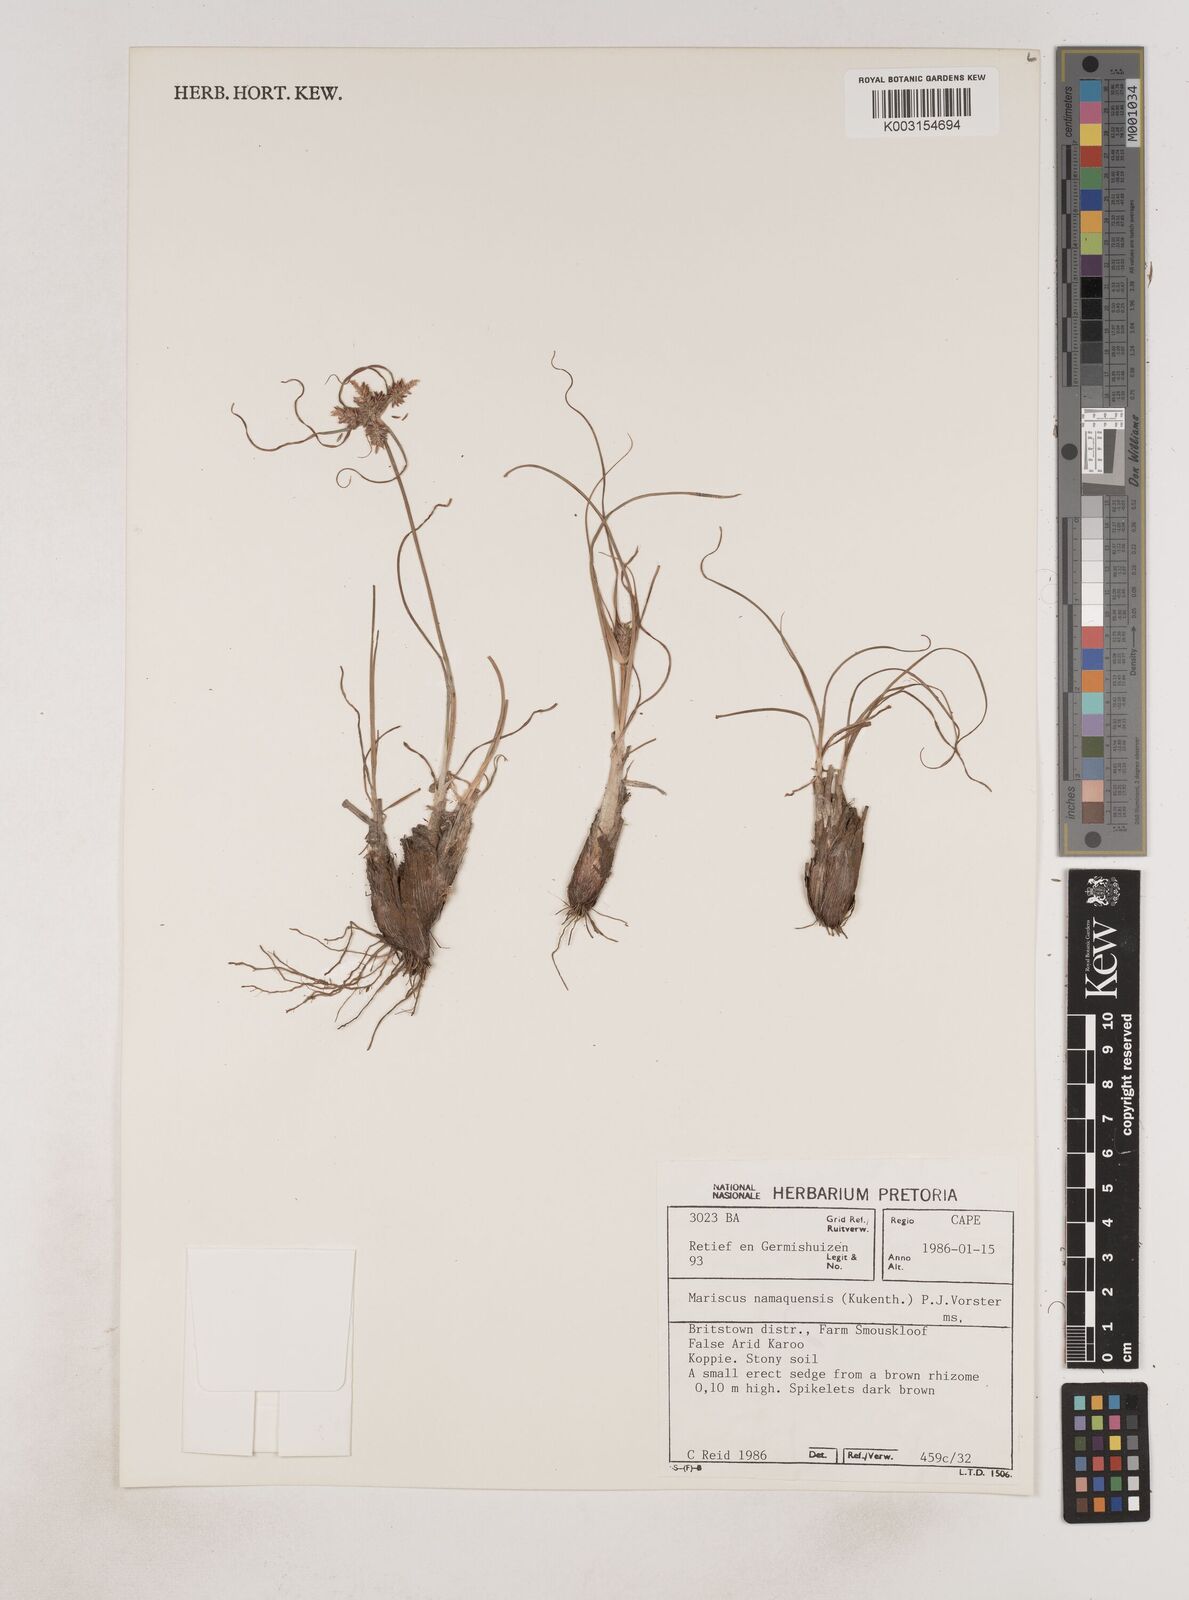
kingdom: Plantae
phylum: Tracheophyta
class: Liliopsida
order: Poales
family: Cyperaceae
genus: Cyperus
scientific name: Cyperus
